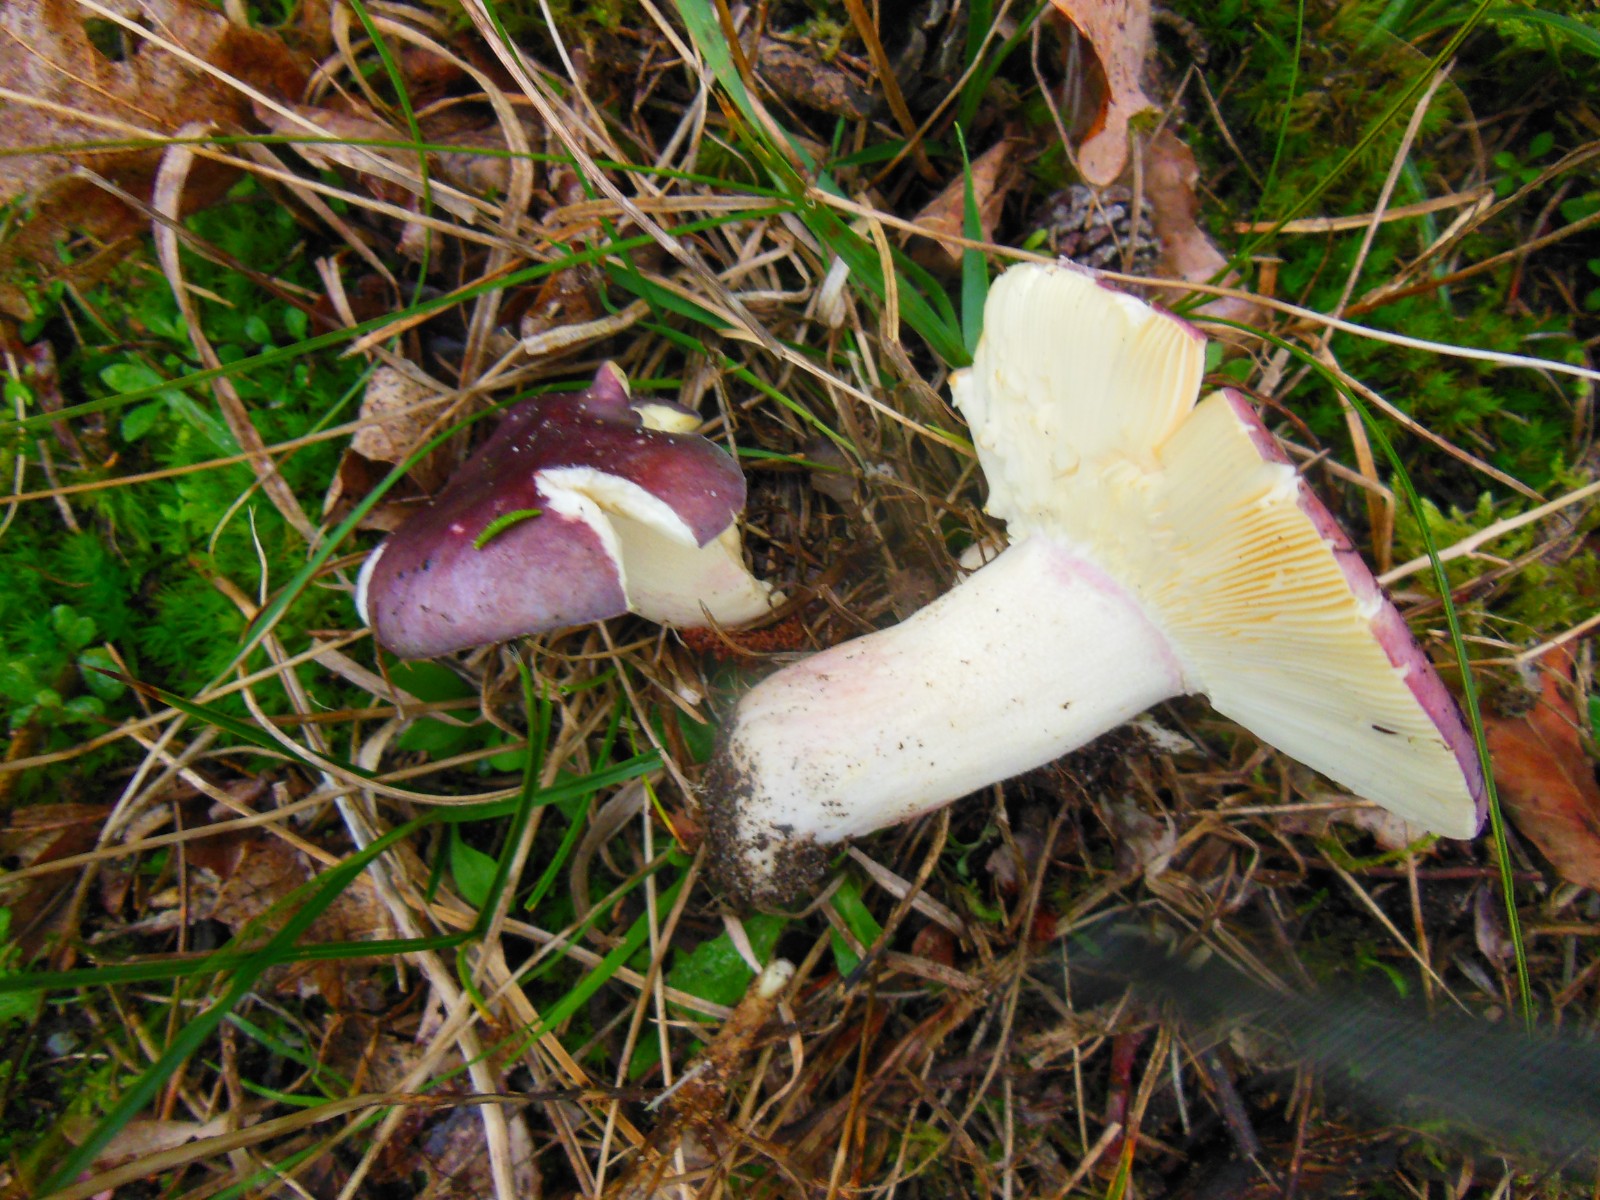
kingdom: Fungi
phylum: Basidiomycota
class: Agaricomycetes
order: Russulales
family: Russulaceae
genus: Russula
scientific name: Russula sardonia
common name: citronbladet skørhat
